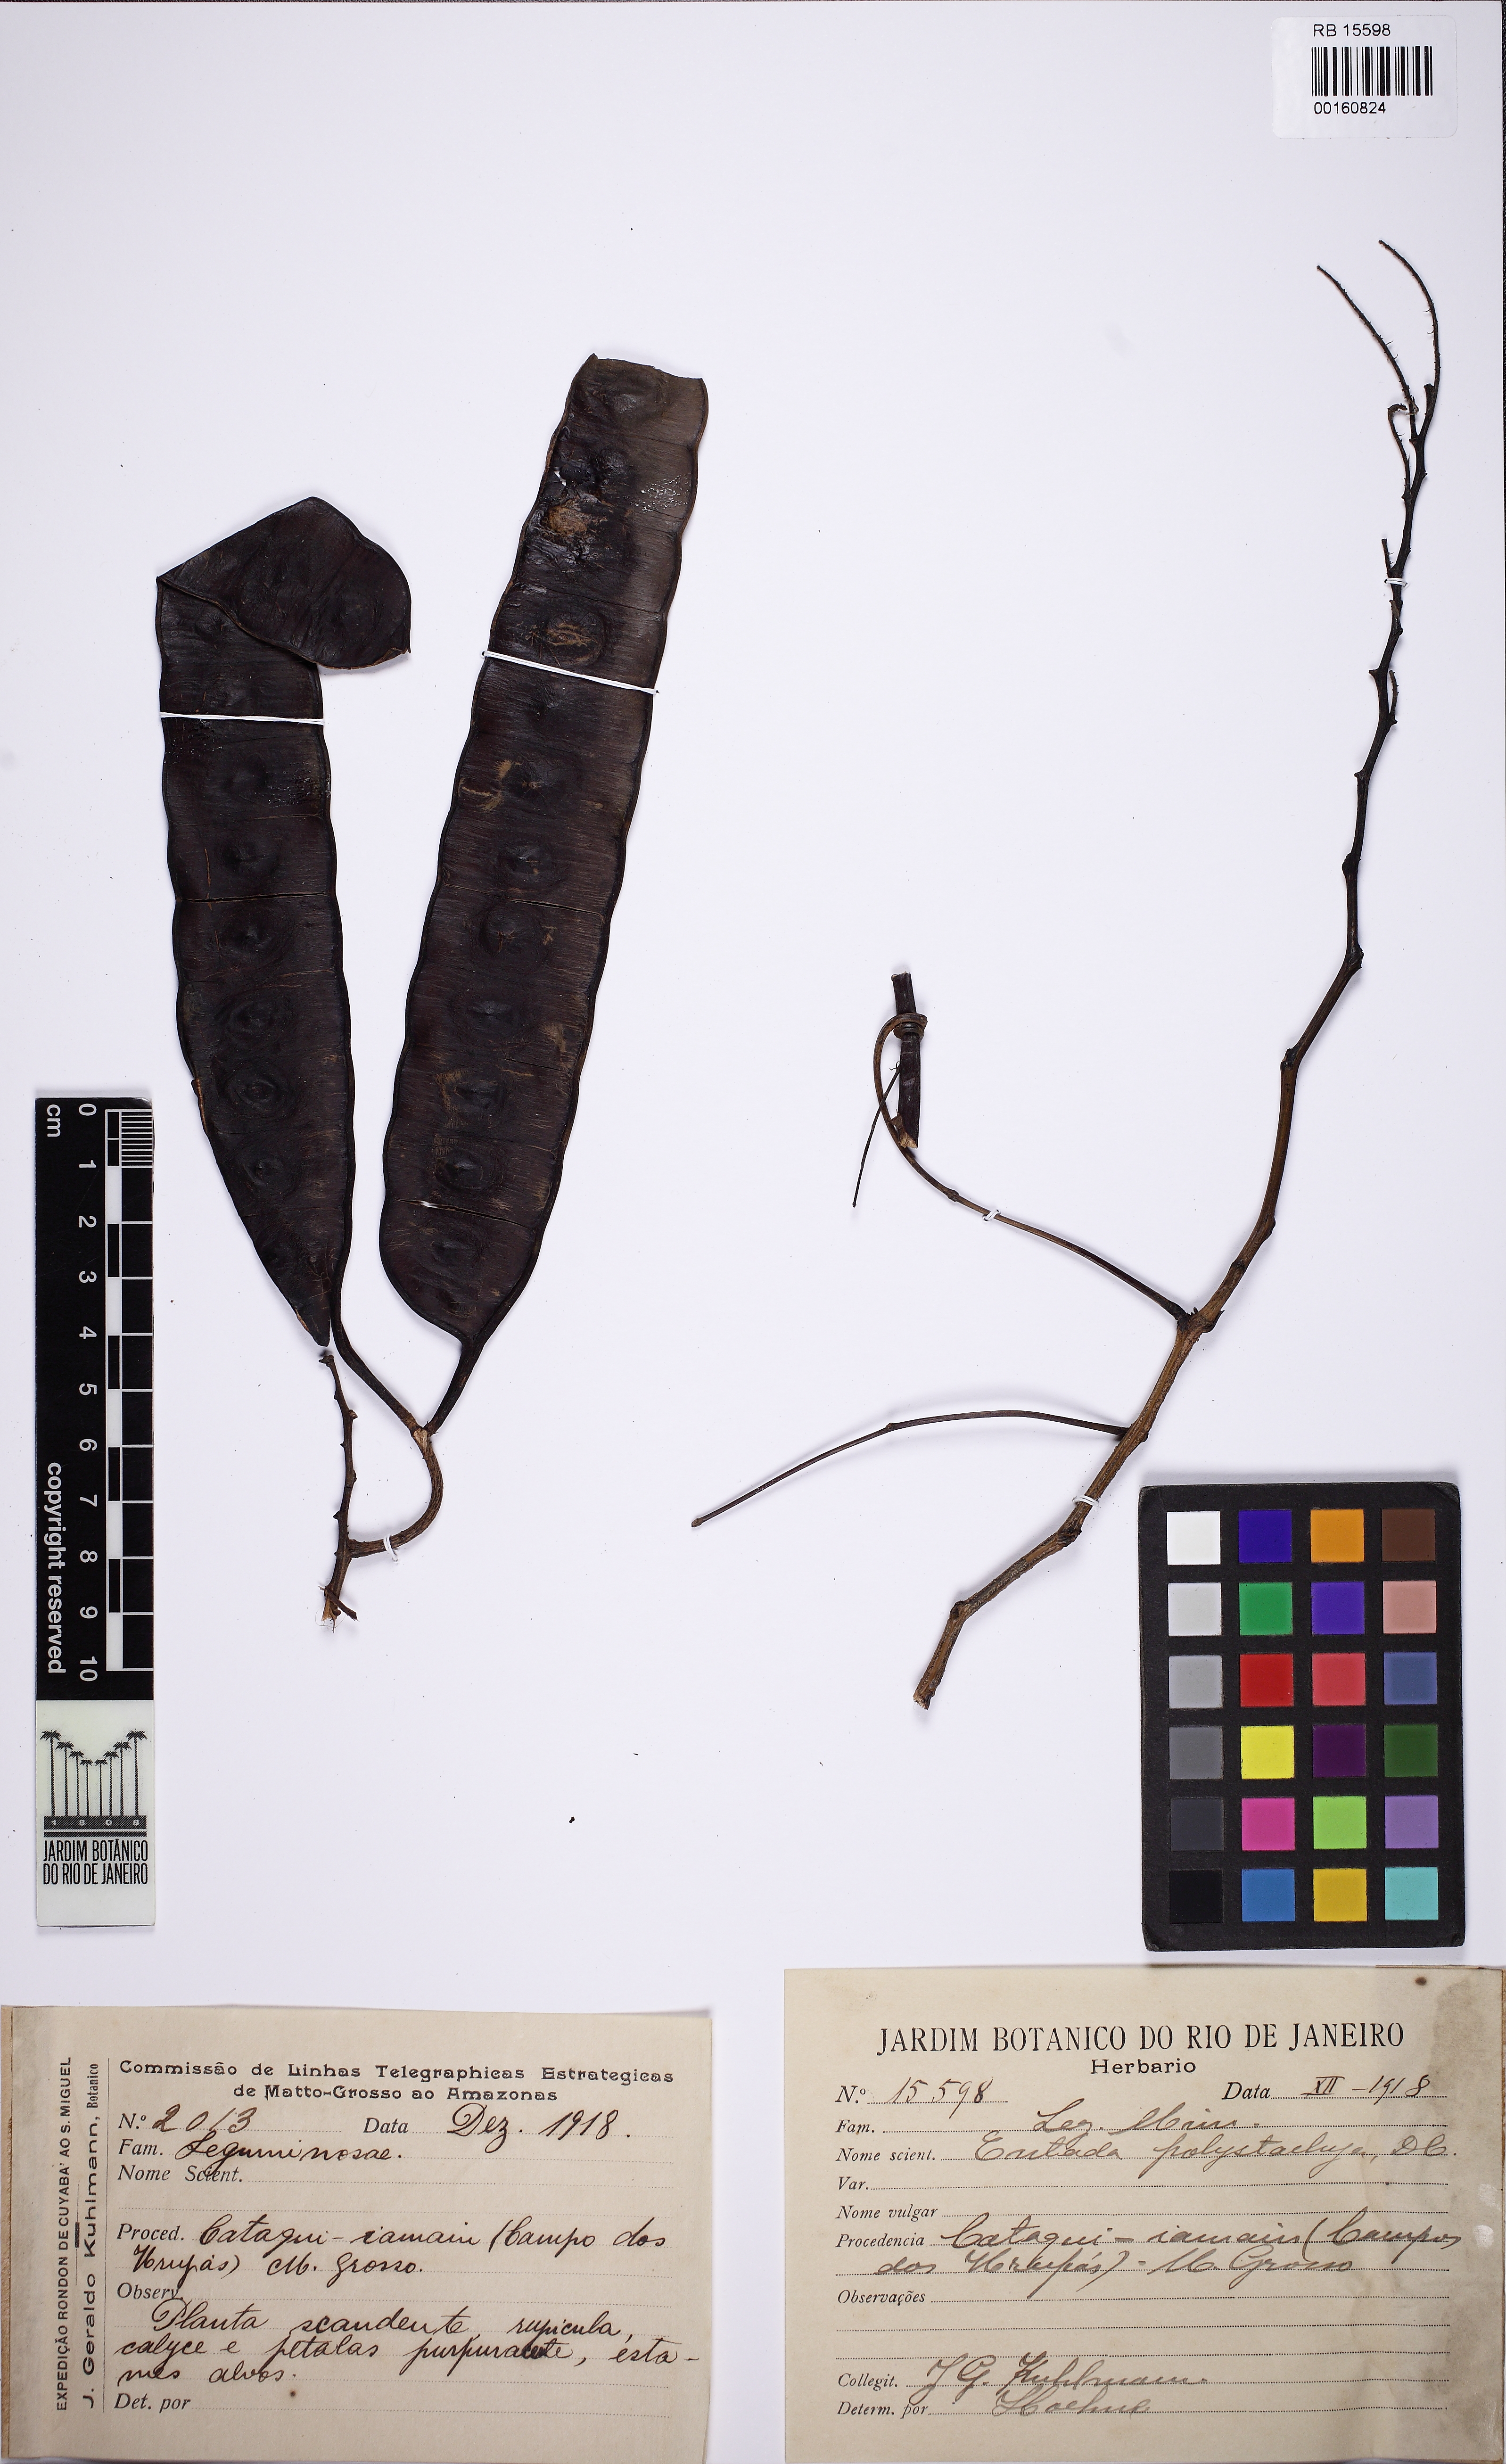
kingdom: Plantae
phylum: Tracheophyta
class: Magnoliopsida
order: Fabales
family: Fabaceae
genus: Entada
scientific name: Entada polystachya
